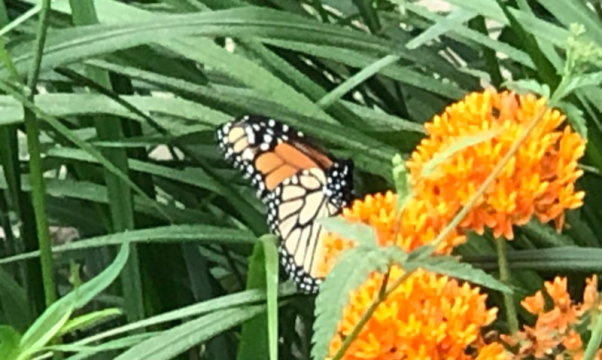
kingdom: Animalia
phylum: Arthropoda
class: Insecta
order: Lepidoptera
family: Nymphalidae
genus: Danaus
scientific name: Danaus plexippus
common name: Monarch
